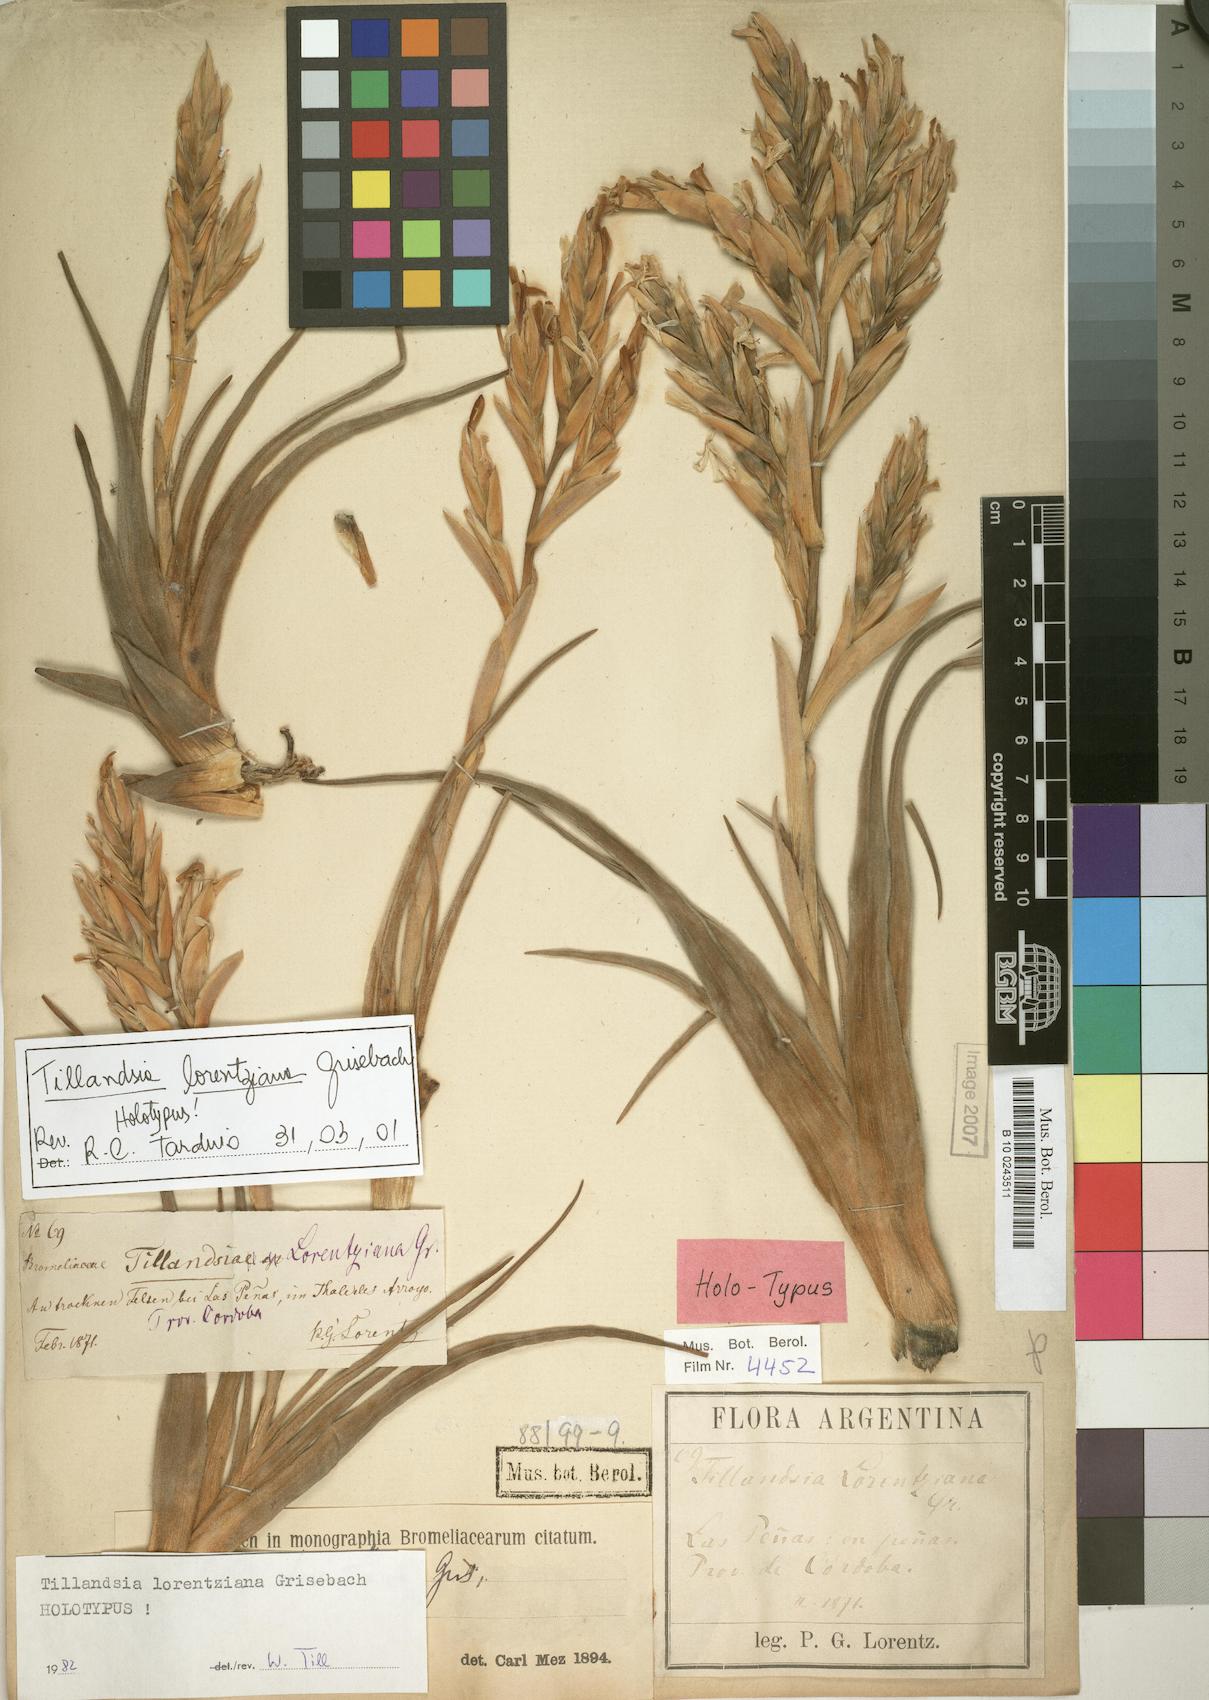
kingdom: Plantae
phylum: Tracheophyta
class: Liliopsida
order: Poales
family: Bromeliaceae
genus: Tillandsia
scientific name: Tillandsia lorentziana
